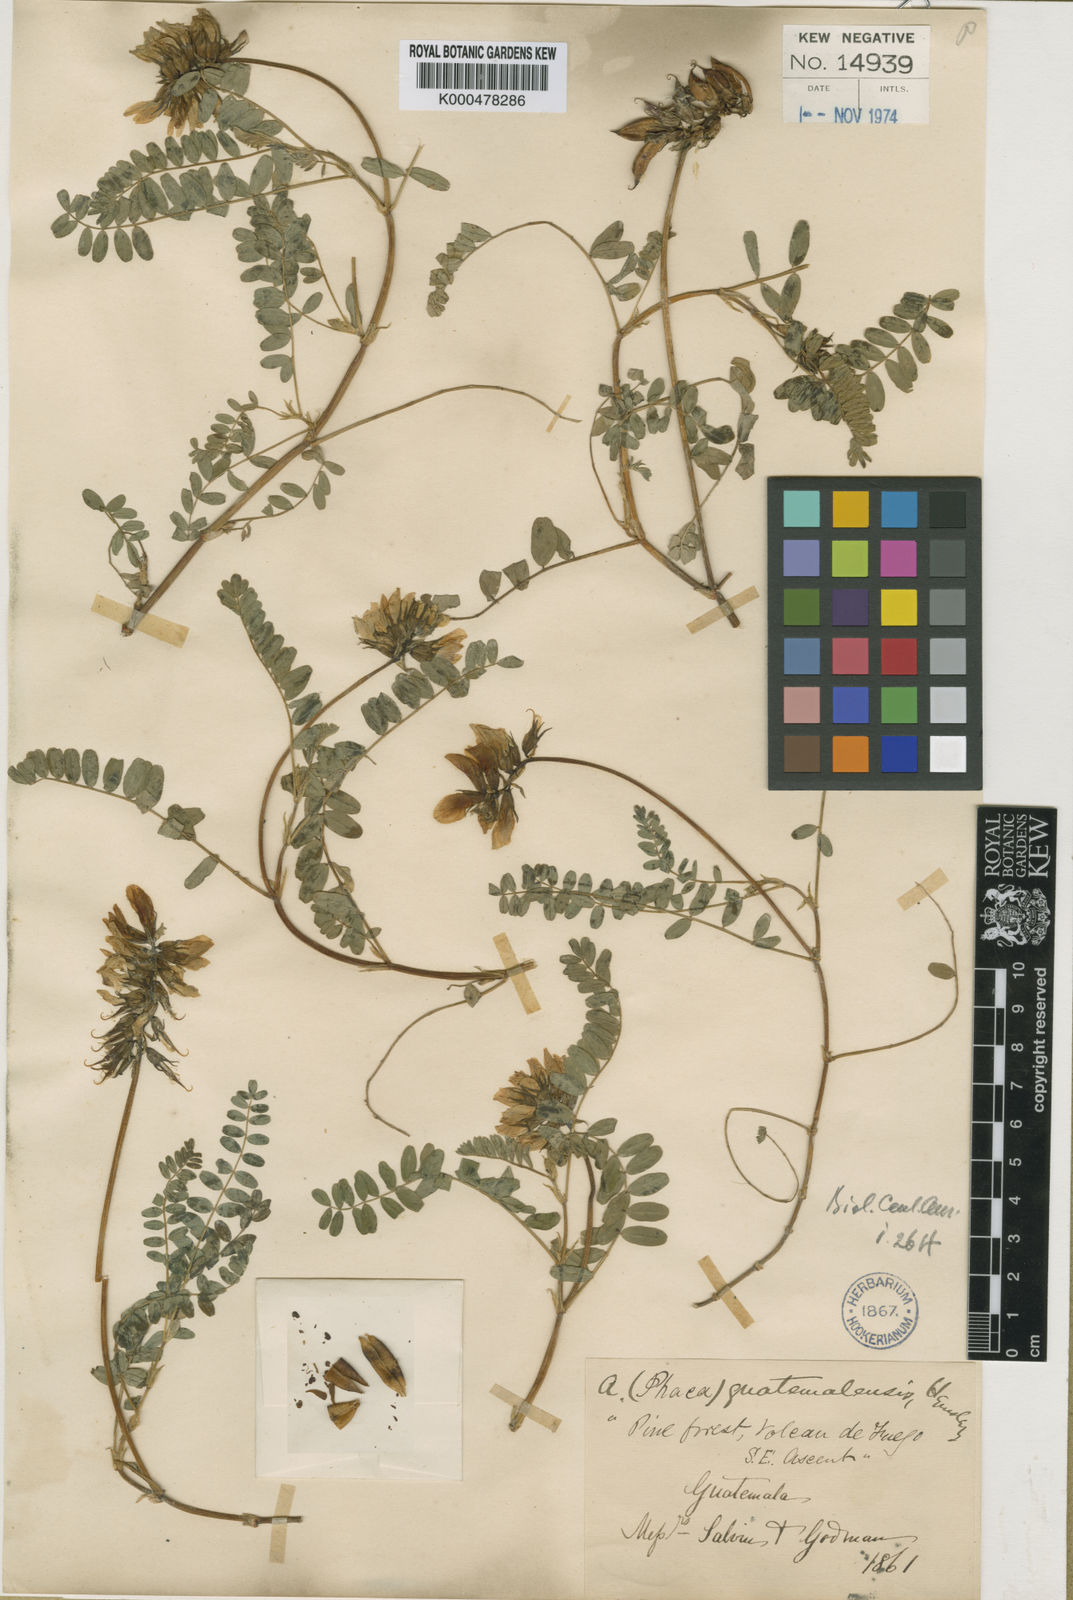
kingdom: Plantae
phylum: Tracheophyta
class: Magnoliopsida
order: Fabales
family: Fabaceae
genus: Astragalus
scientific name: Astragalus guatemalensis
